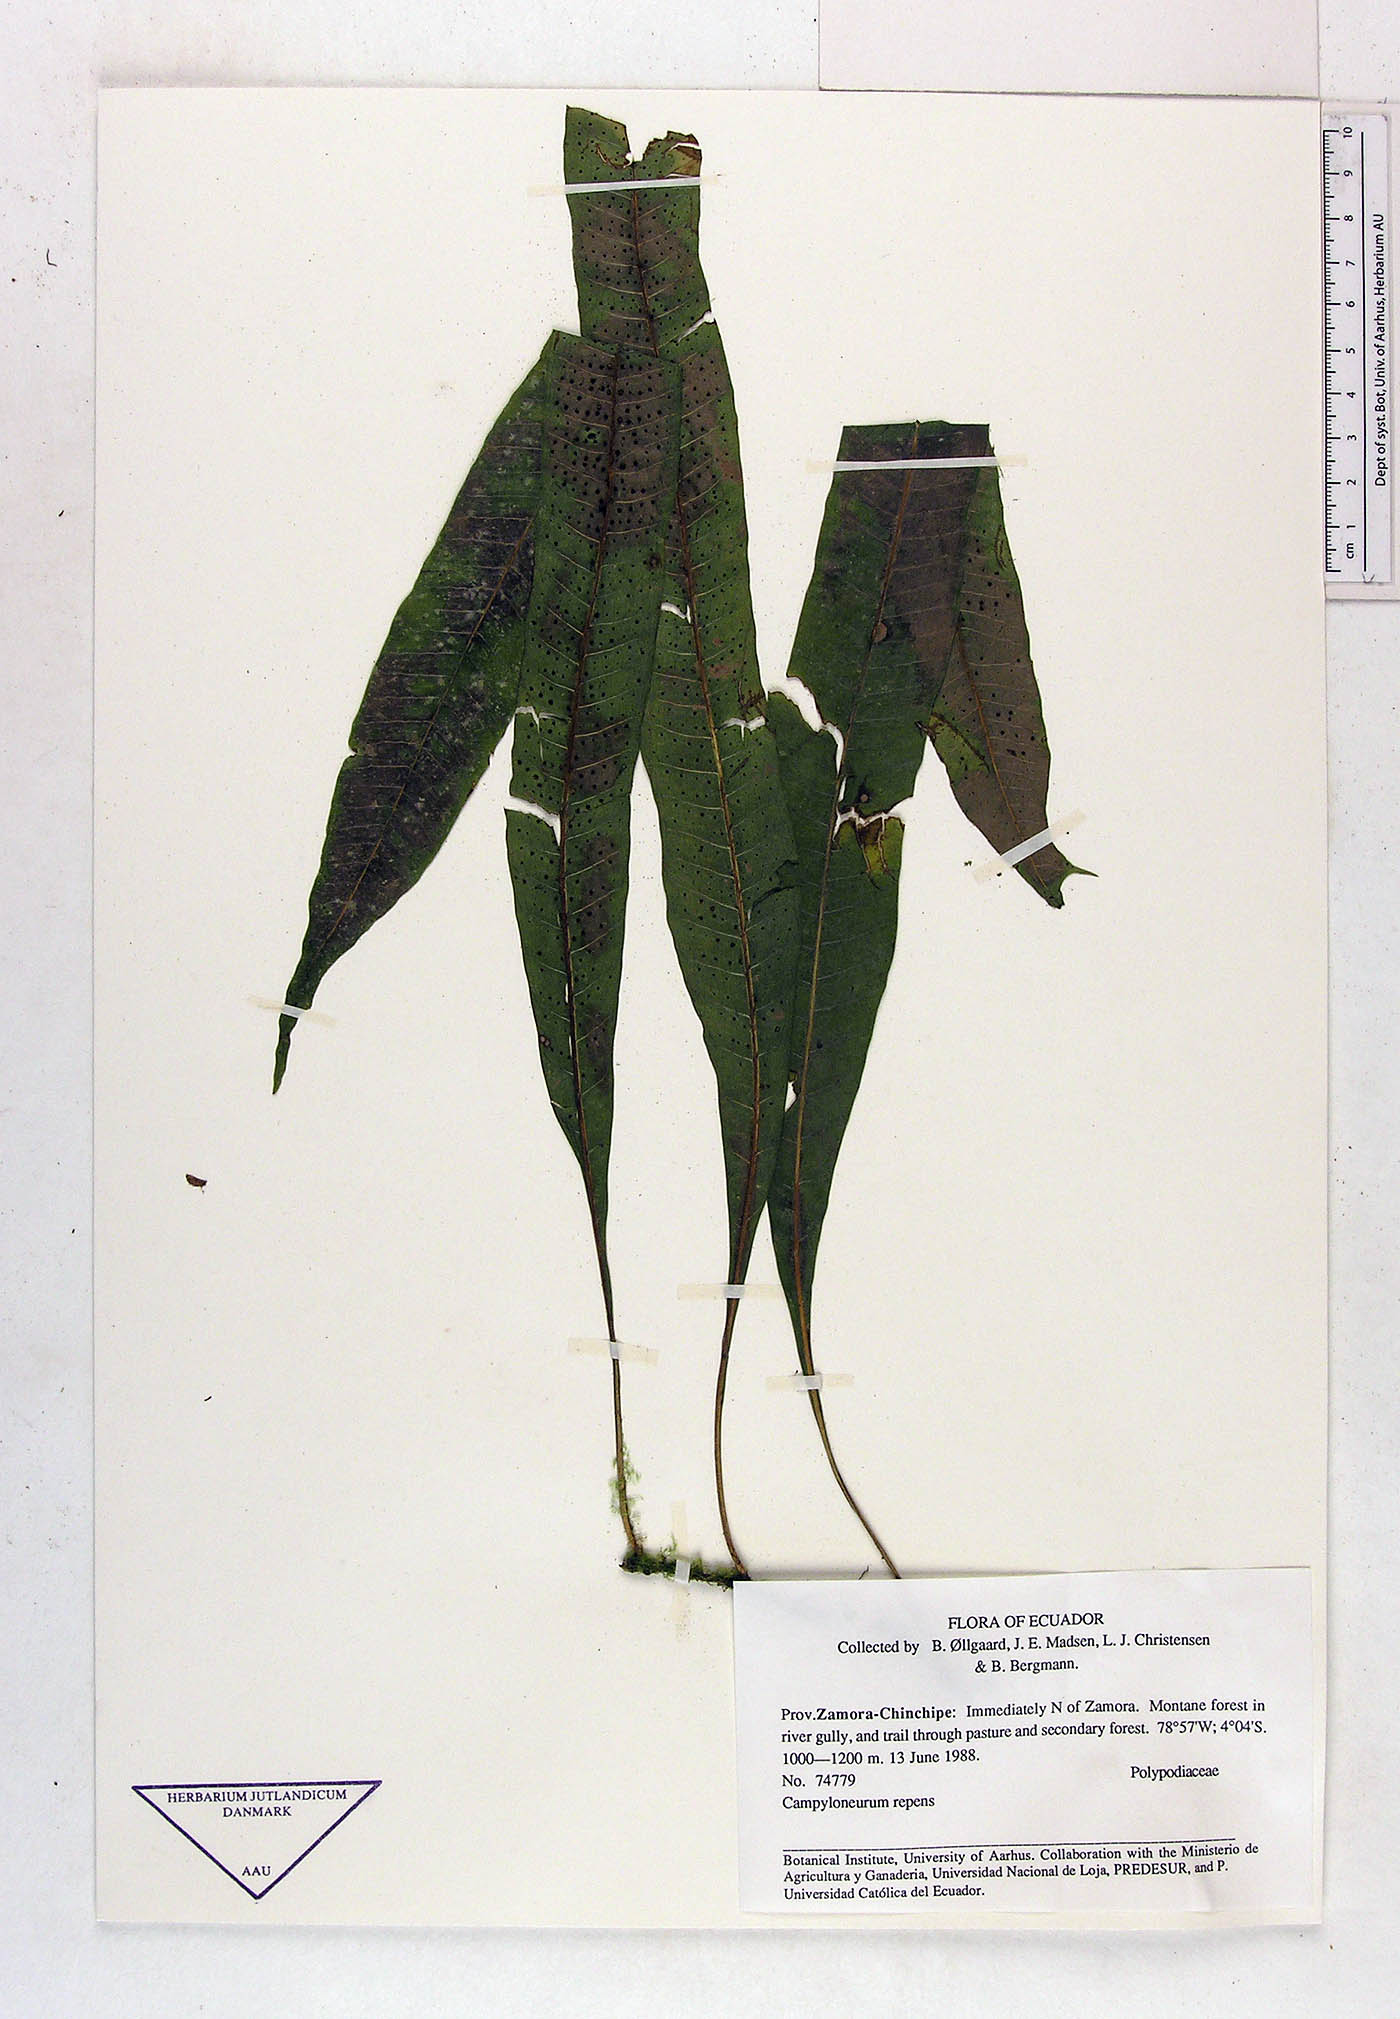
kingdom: Plantae
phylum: Tracheophyta
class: Polypodiopsida
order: Polypodiales
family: Polypodiaceae
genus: Campyloneurum
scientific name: Campyloneurum fuscosquamatum
